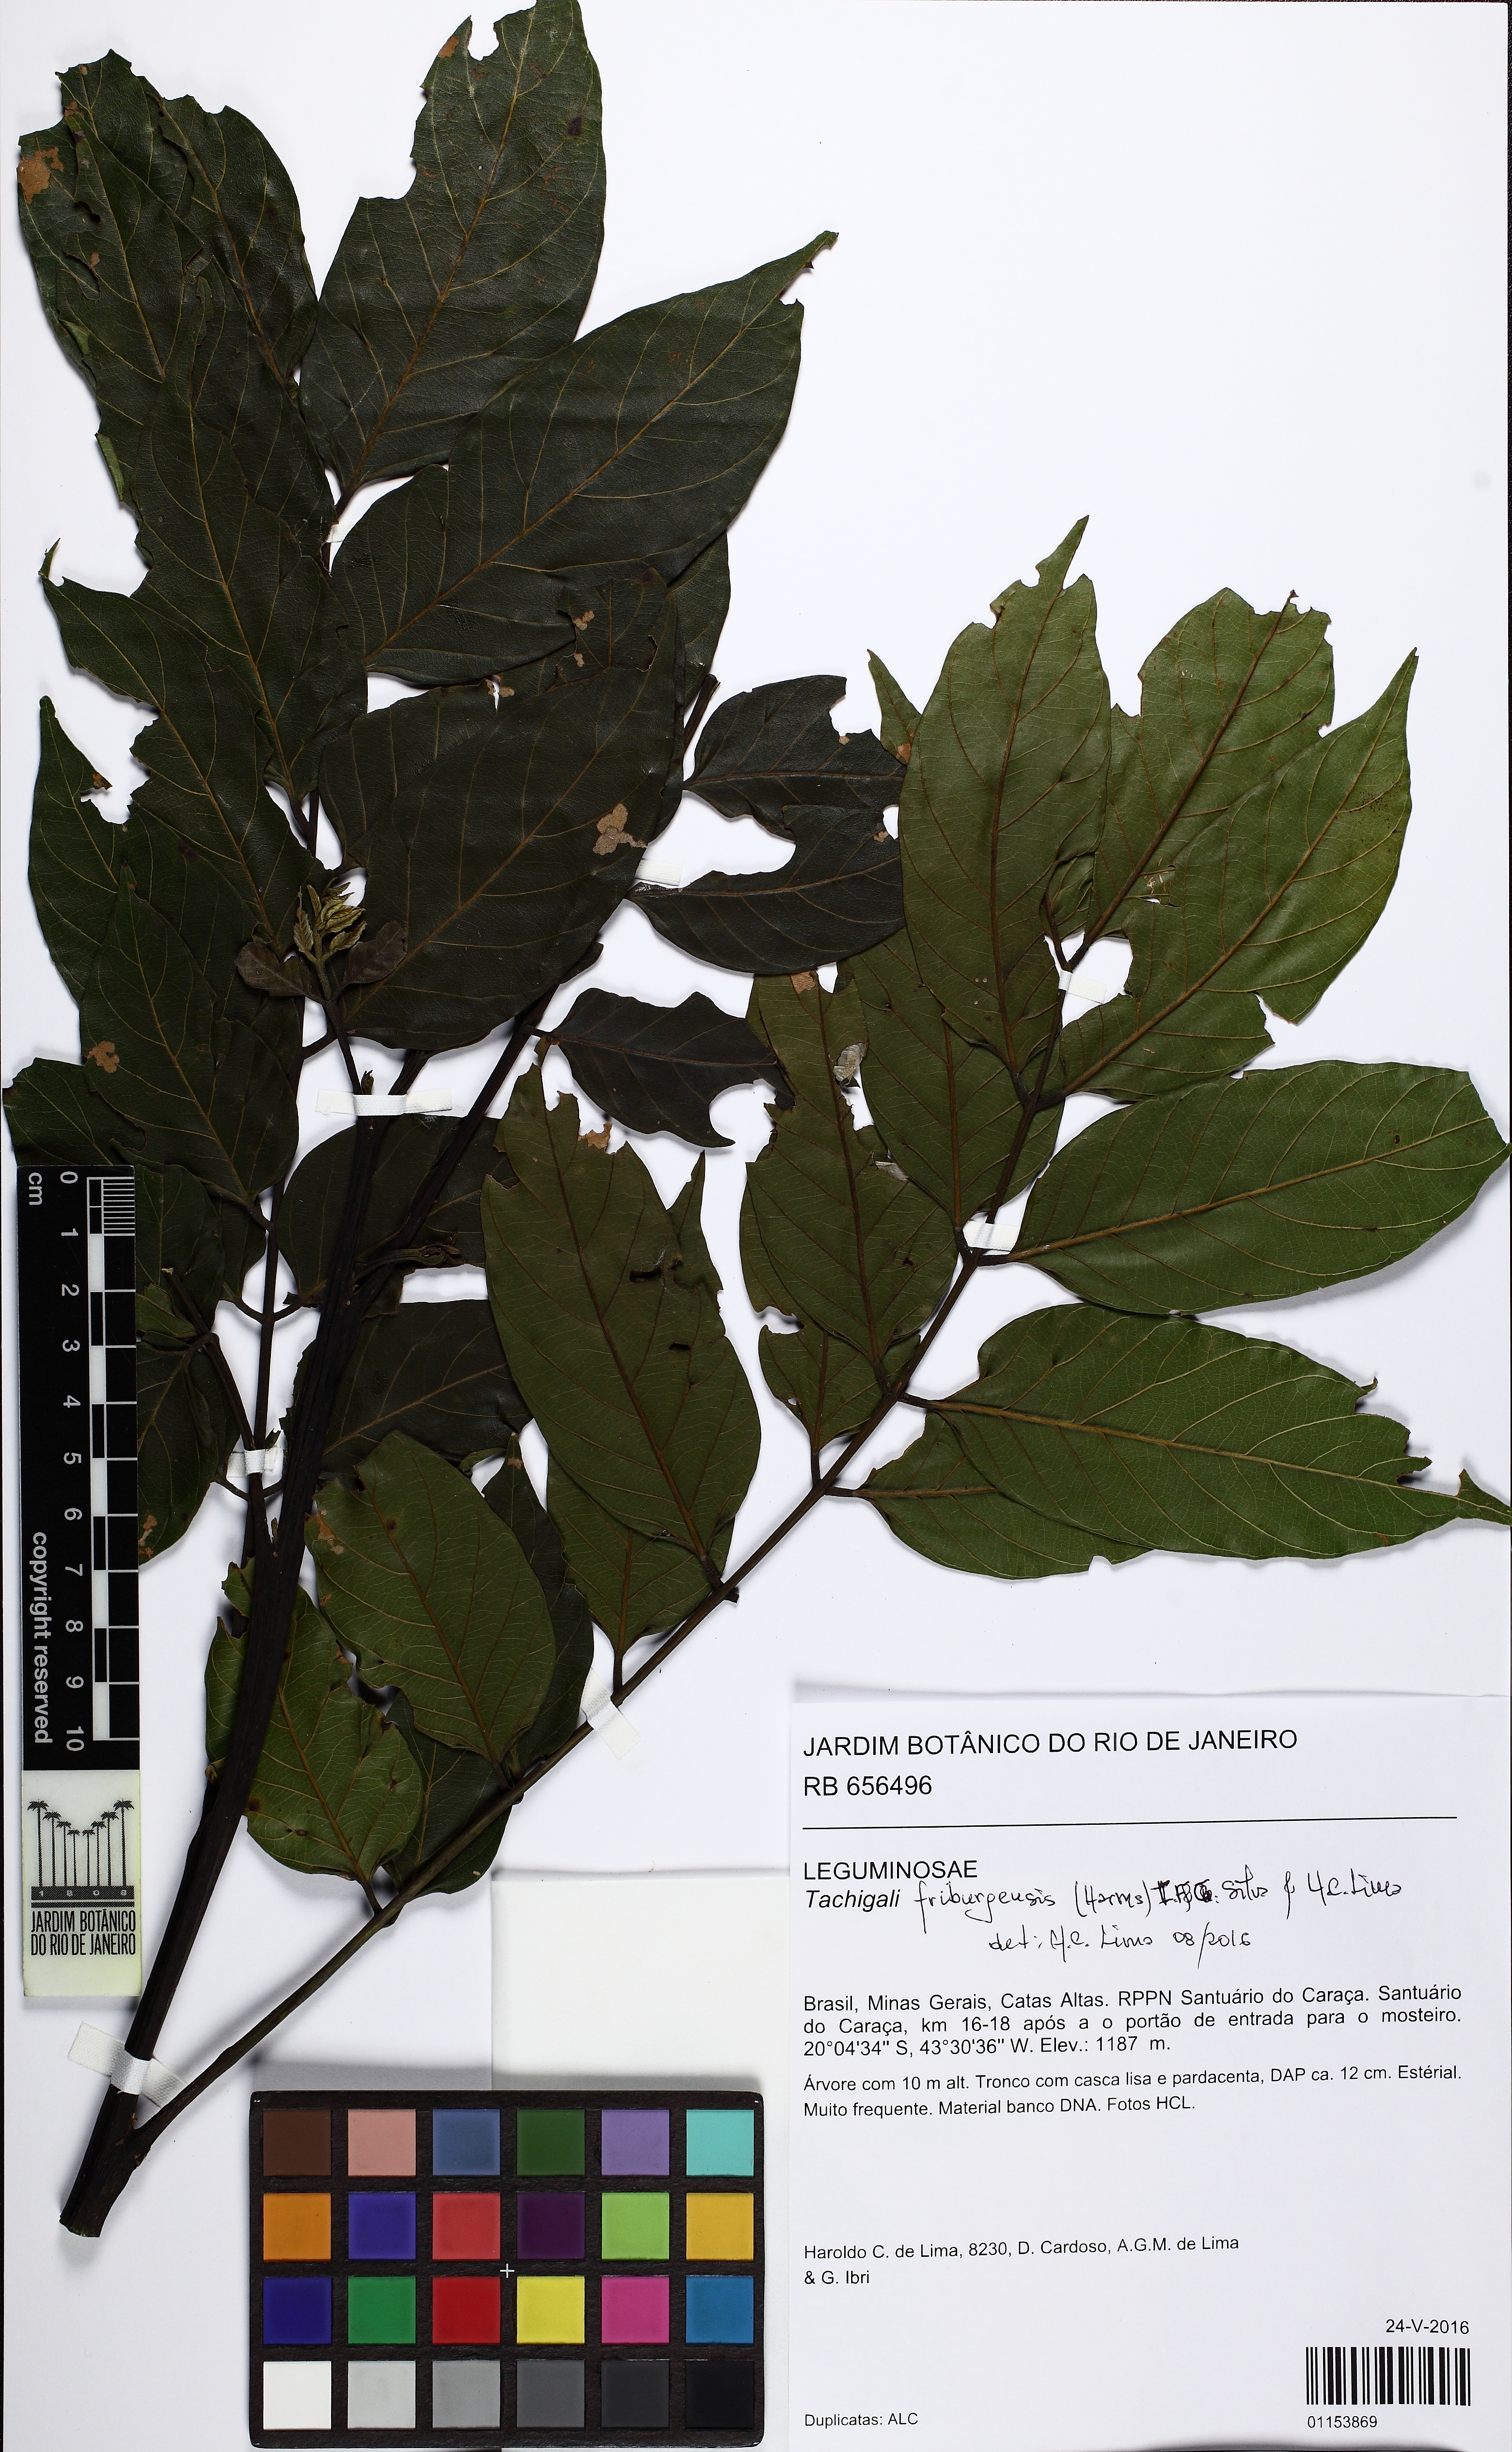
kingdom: Plantae
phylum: Tracheophyta
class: Magnoliopsida
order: Fabales
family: Fabaceae
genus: Tachigali
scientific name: Tachigali friburgensis
